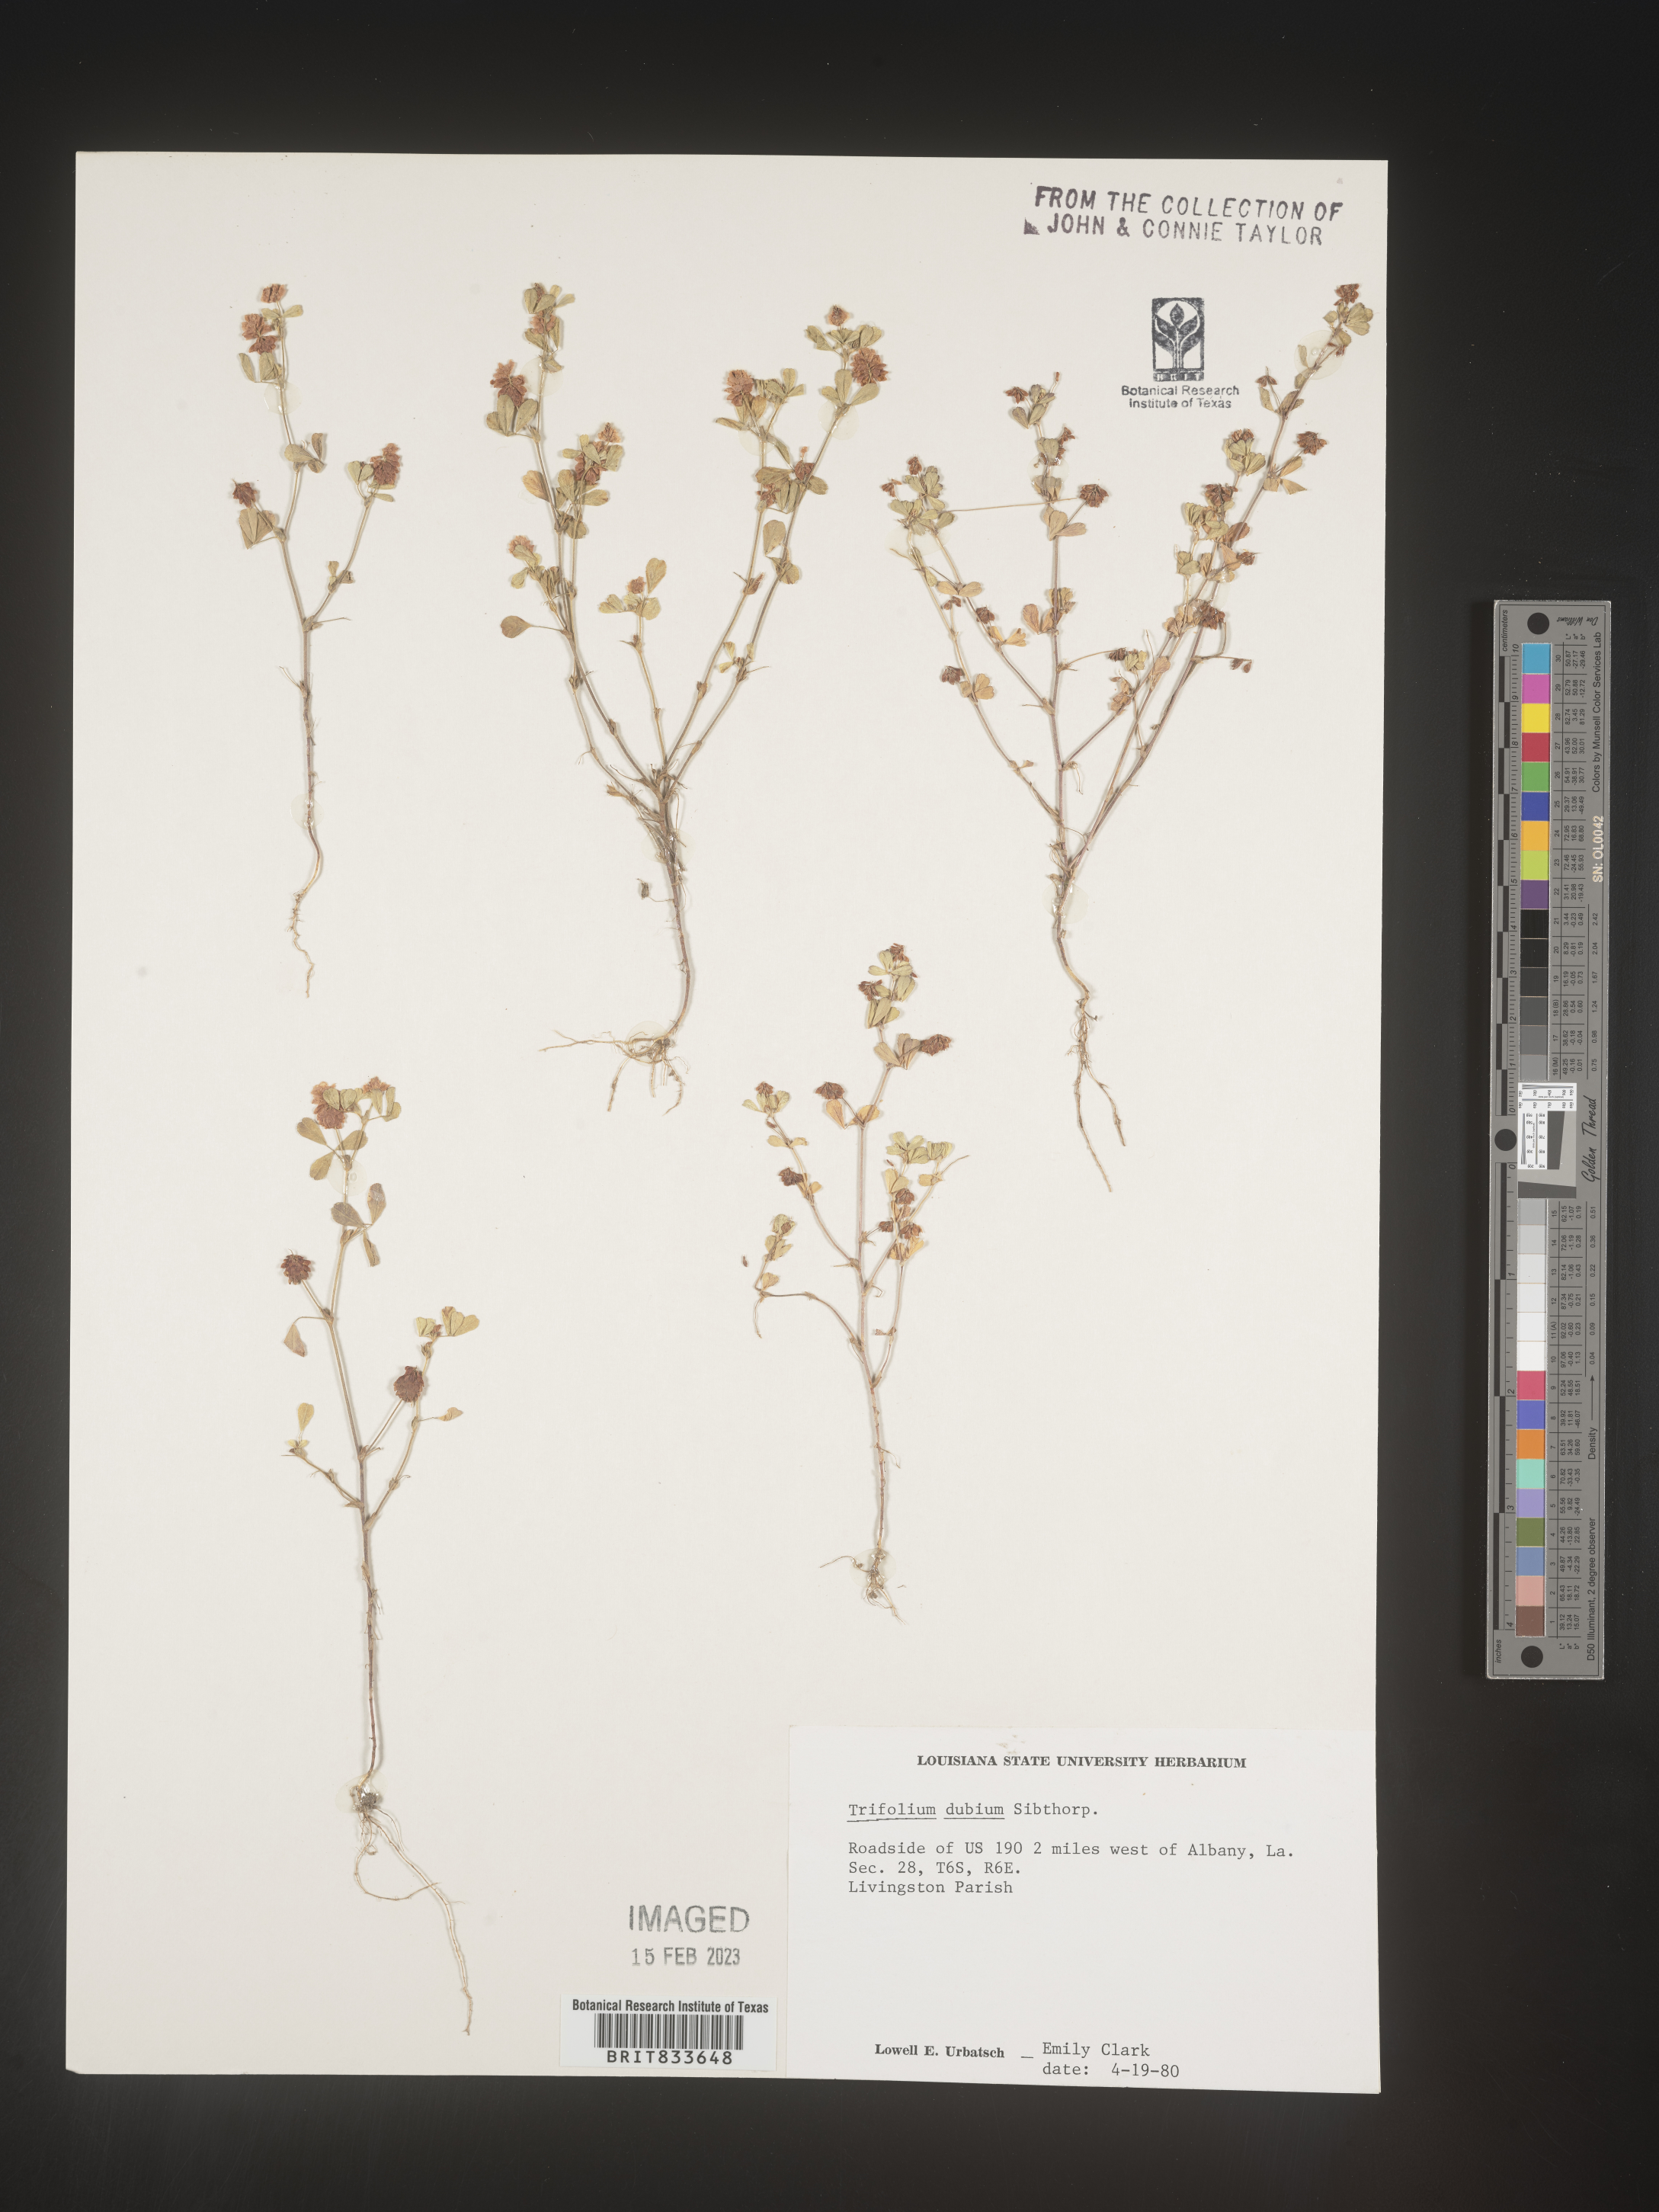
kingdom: Plantae
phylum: Tracheophyta
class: Magnoliopsida
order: Fabales
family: Fabaceae
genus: Trifolium
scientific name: Trifolium dubium
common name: Suckling clover
